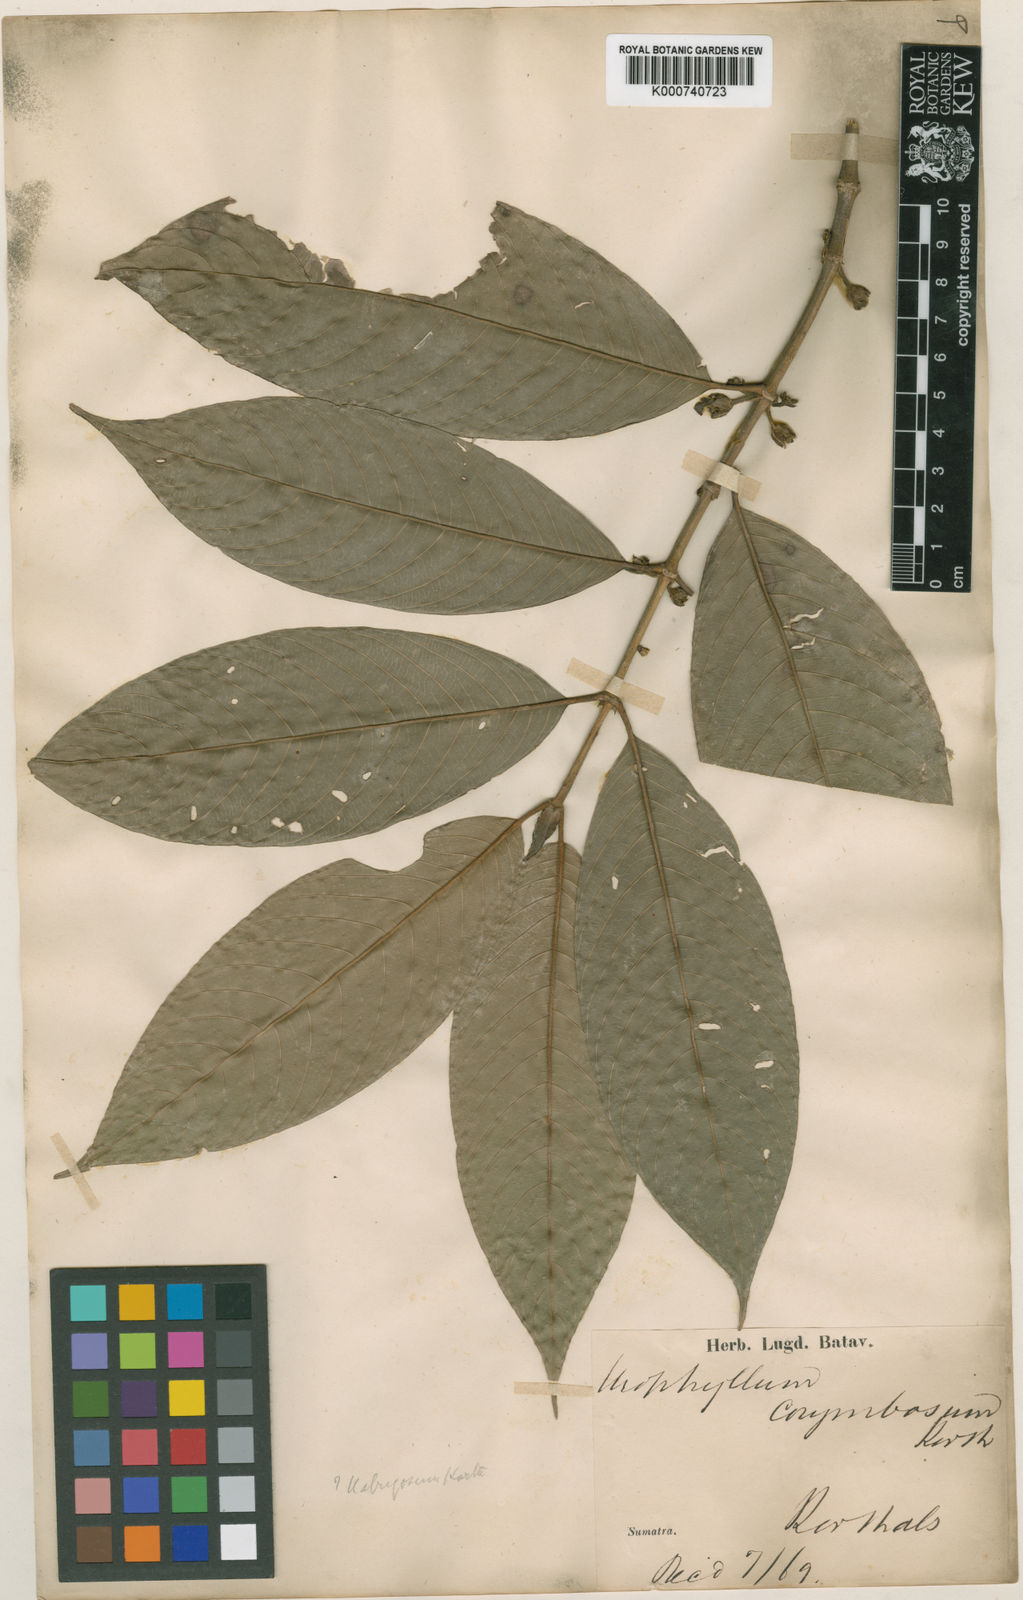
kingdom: Plantae
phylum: Tracheophyta
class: Magnoliopsida
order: Gentianales
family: Rubiaceae
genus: Urophyllum
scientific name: Urophyllum corymbosum
